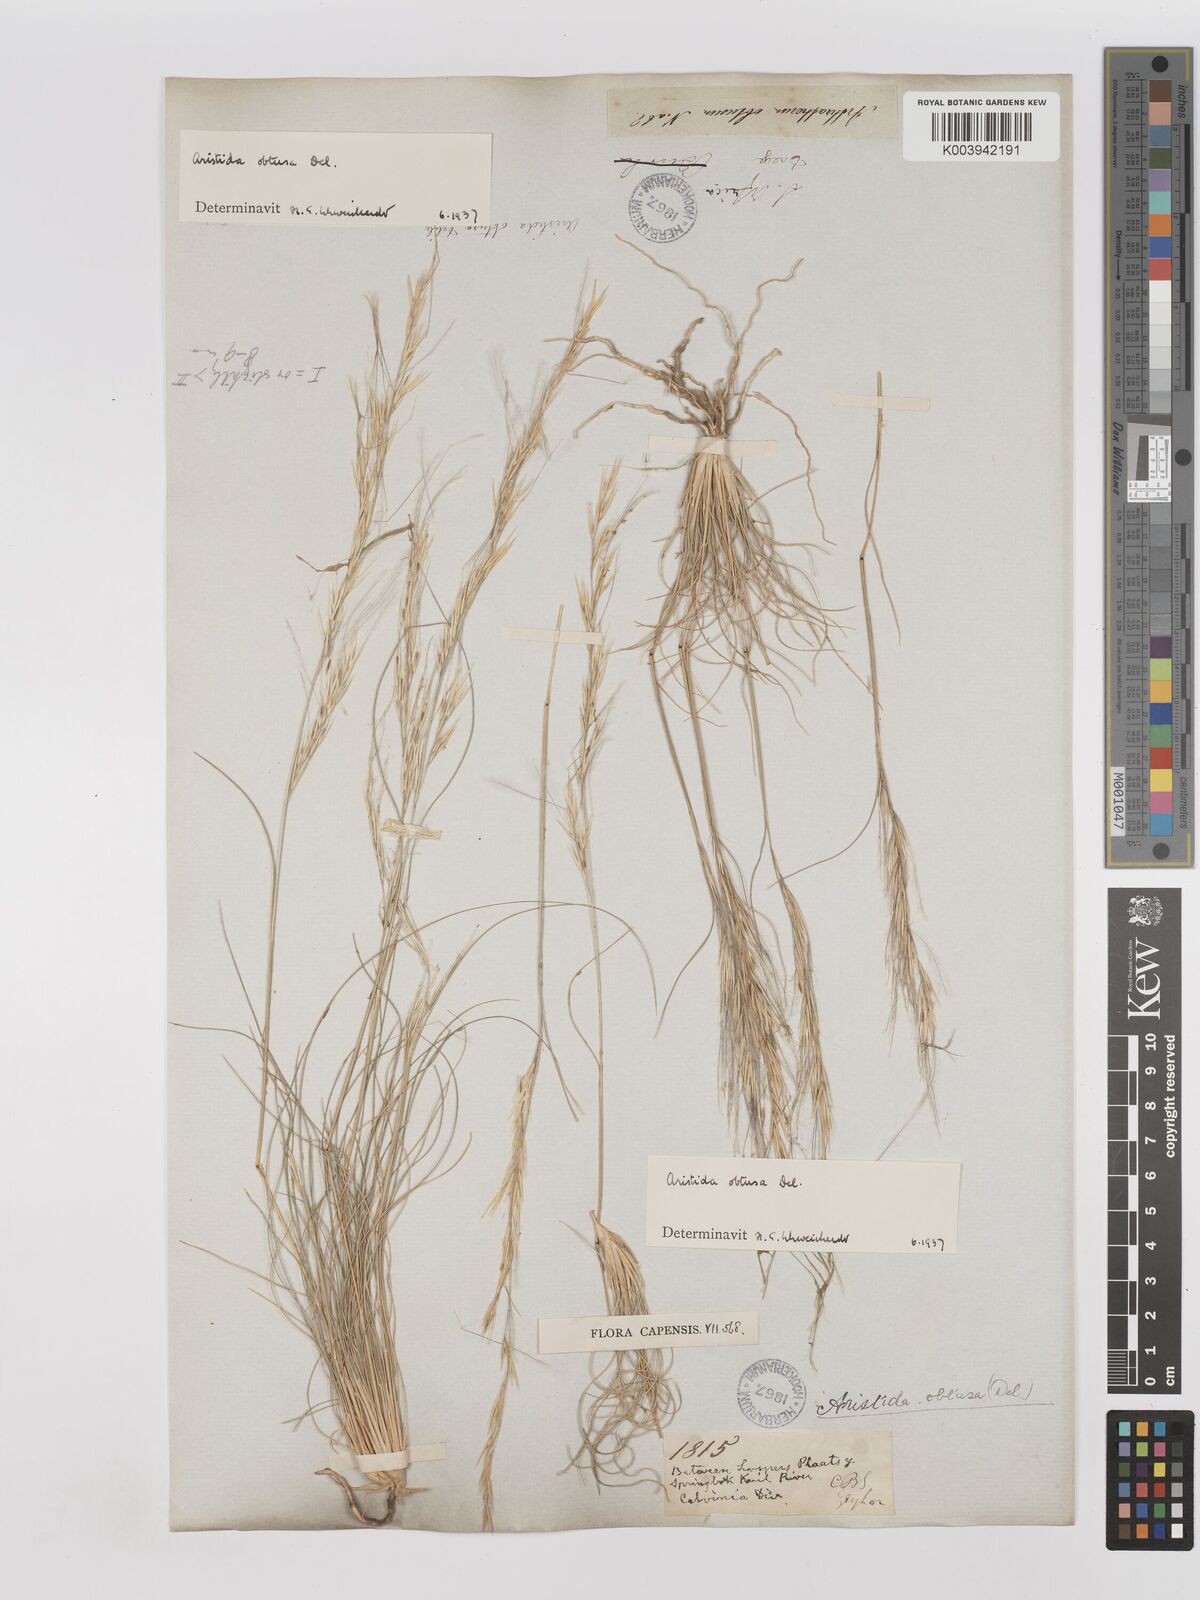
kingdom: Plantae
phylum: Tracheophyta
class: Liliopsida
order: Poales
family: Poaceae
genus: Stipagrostis
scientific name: Stipagrostis obtusa
